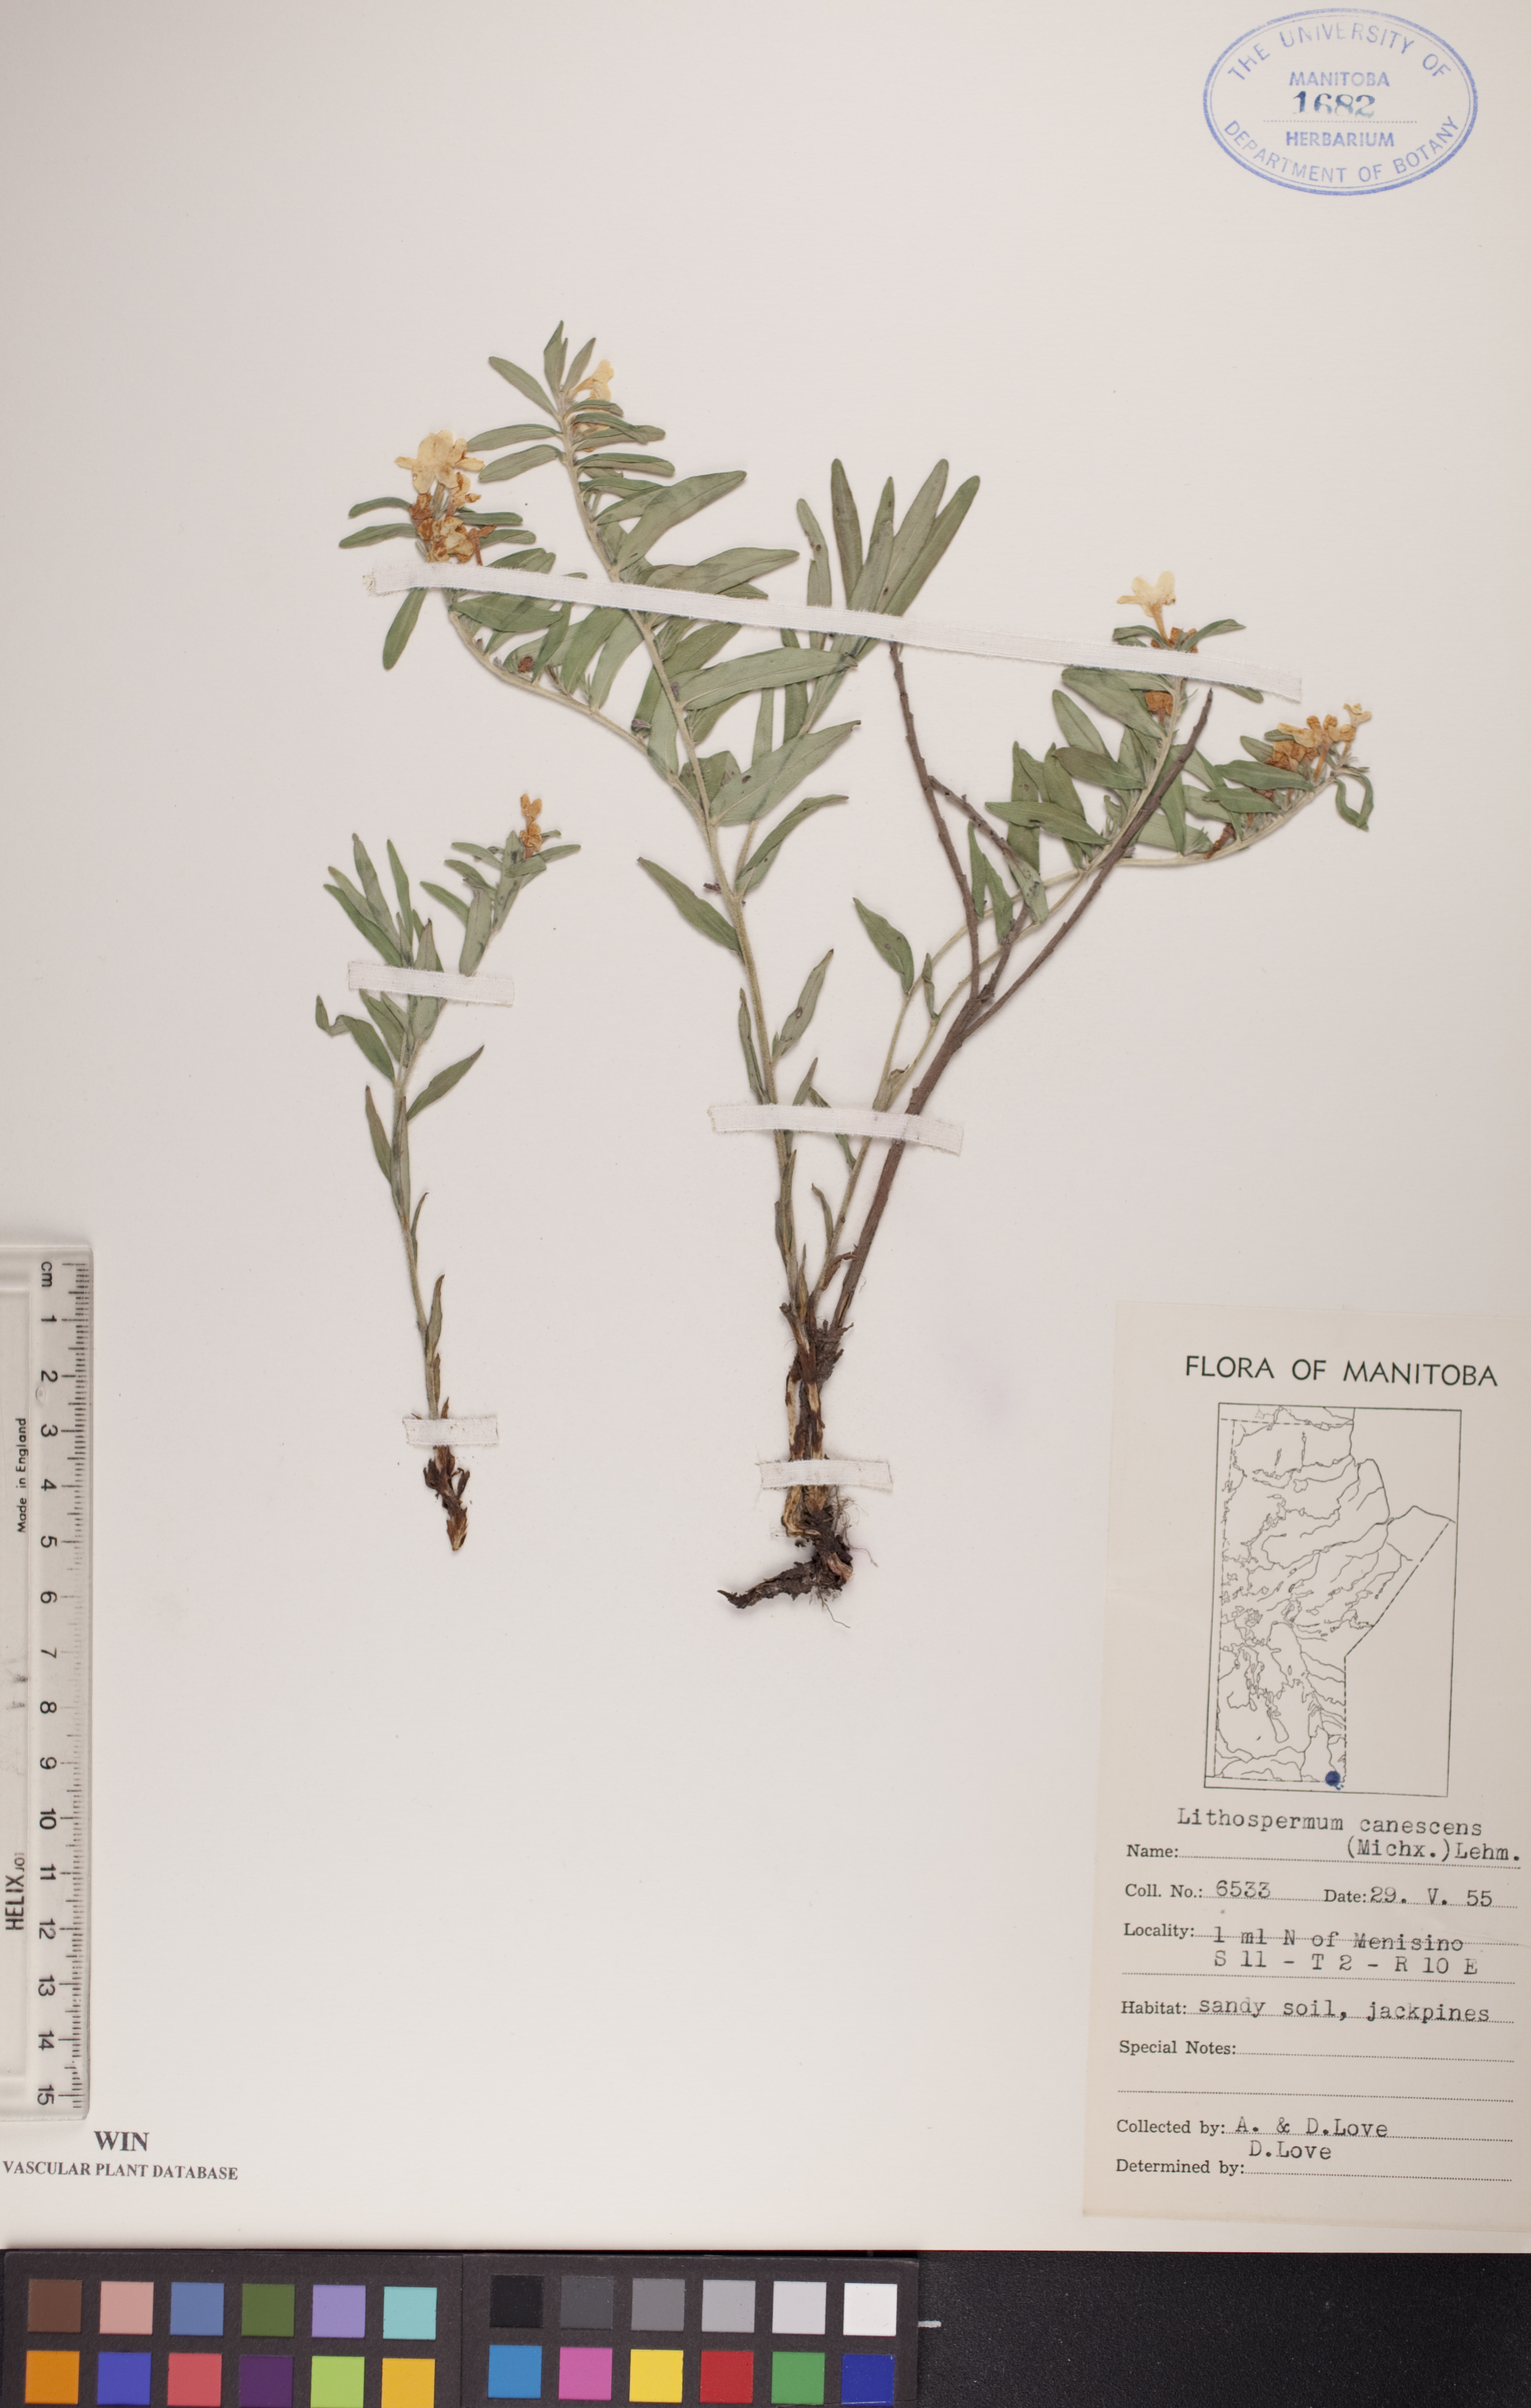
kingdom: Plantae
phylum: Tracheophyta
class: Magnoliopsida
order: Boraginales
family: Boraginaceae
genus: Lithospermum
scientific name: Lithospermum canescens
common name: Hoary puccoon
